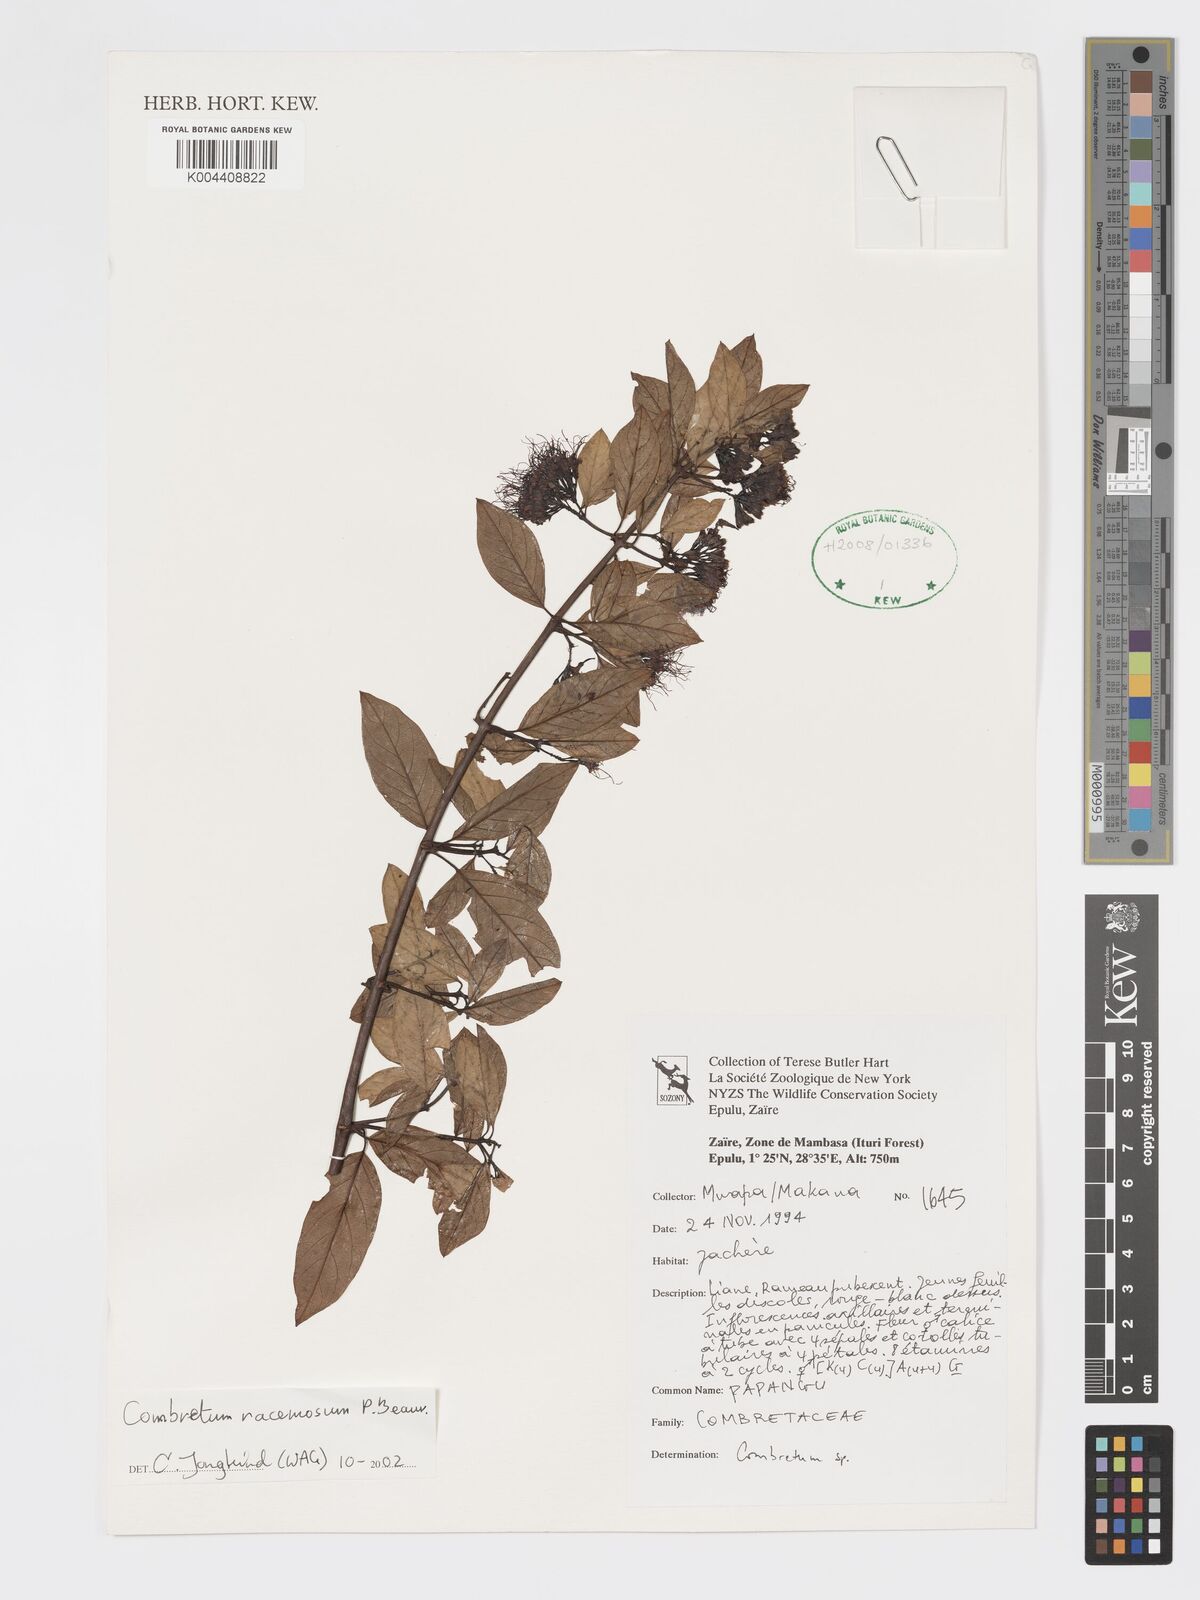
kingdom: Plantae
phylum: Tracheophyta
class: Magnoliopsida
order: Myrtales
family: Combretaceae
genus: Combretum
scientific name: Combretum racemosum
